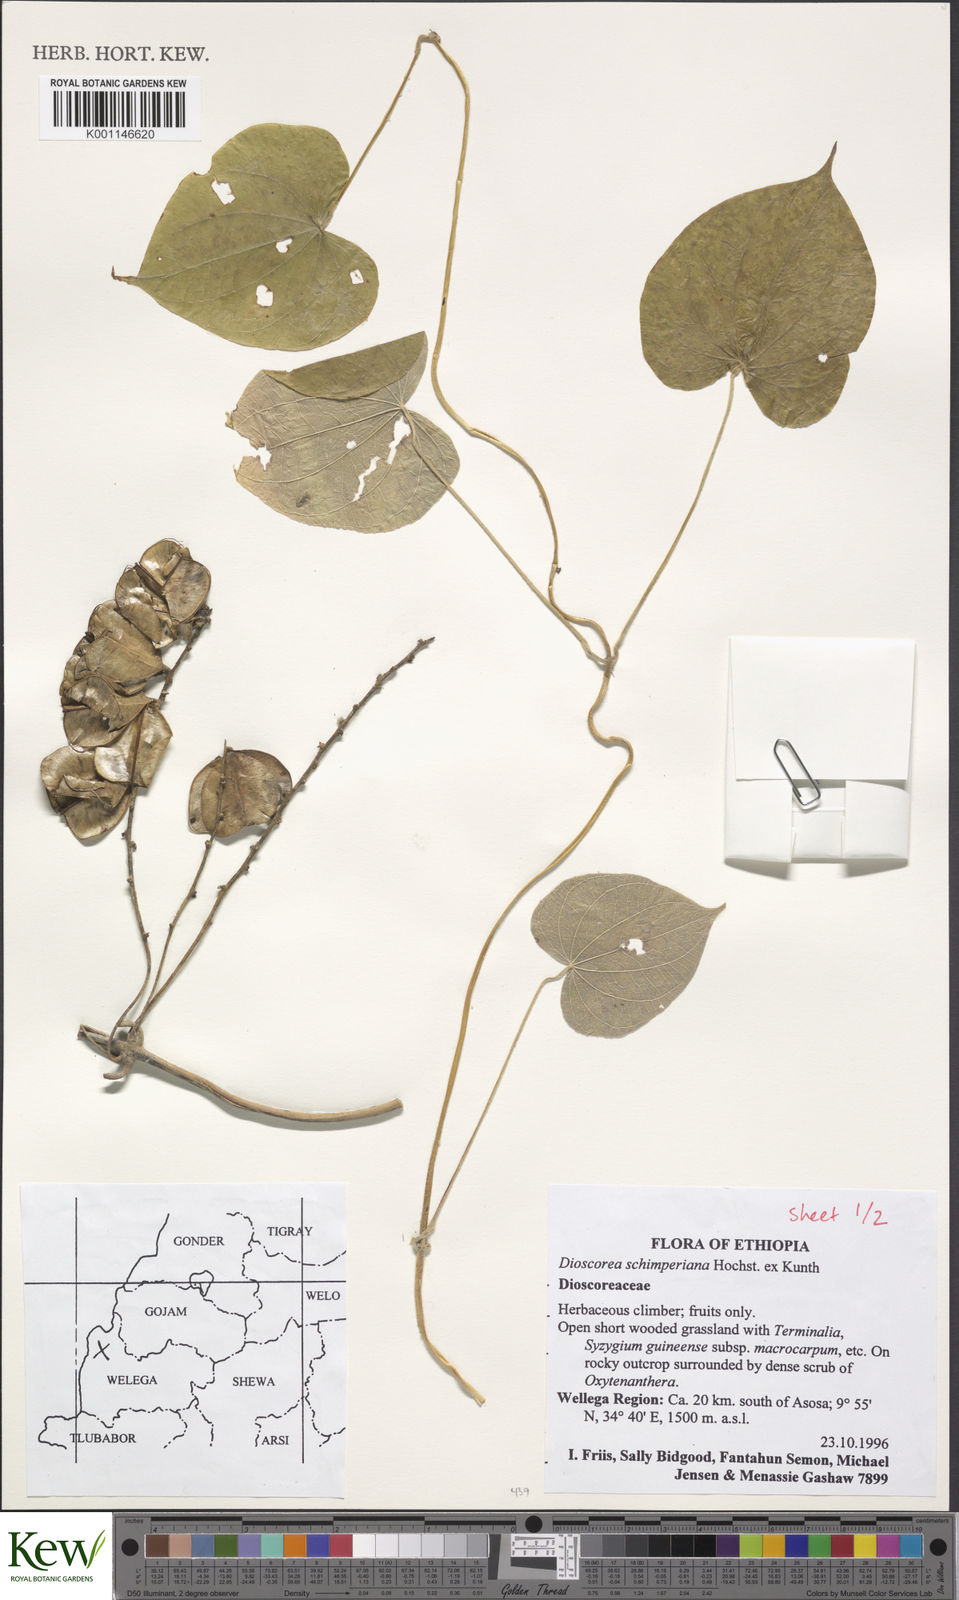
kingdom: Plantae
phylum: Tracheophyta
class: Liliopsida
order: Dioscoreales
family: Dioscoreaceae
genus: Dioscorea
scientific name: Dioscorea schimperiana
